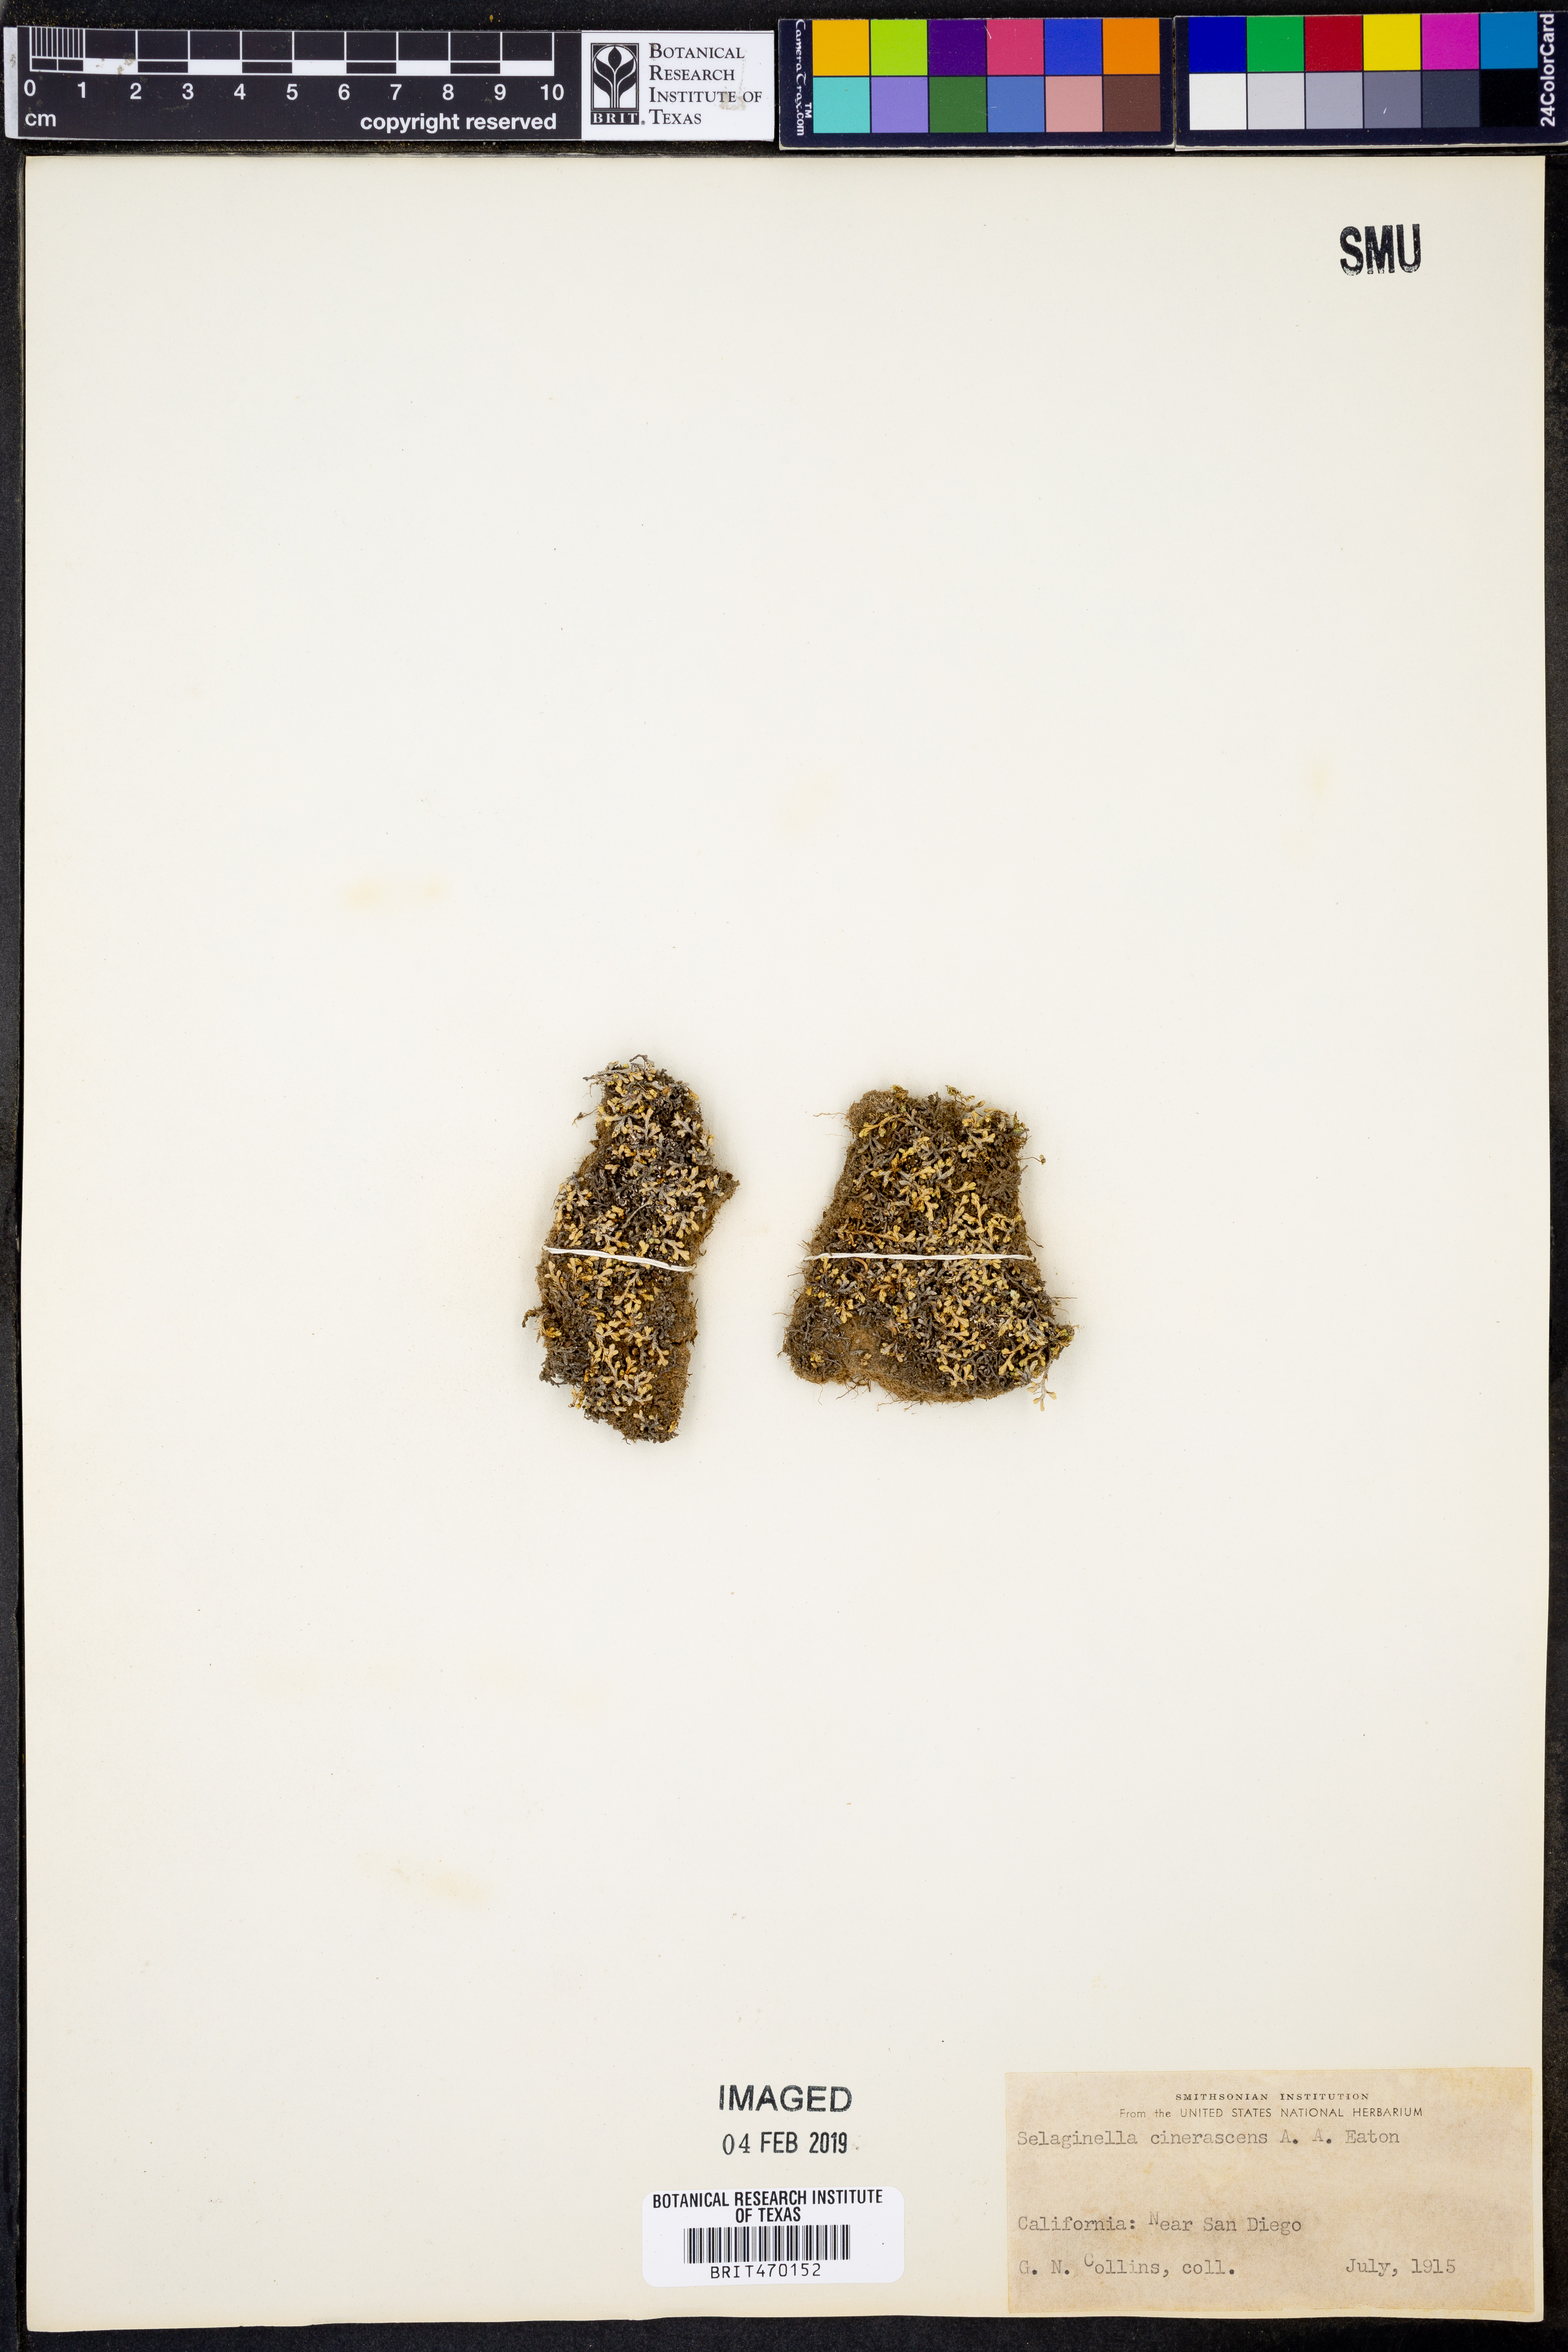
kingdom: Plantae
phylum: Tracheophyta
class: Lycopodiopsida
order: Selaginellales
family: Selaginellaceae
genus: Selaginella
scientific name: Selaginella cinerascens
